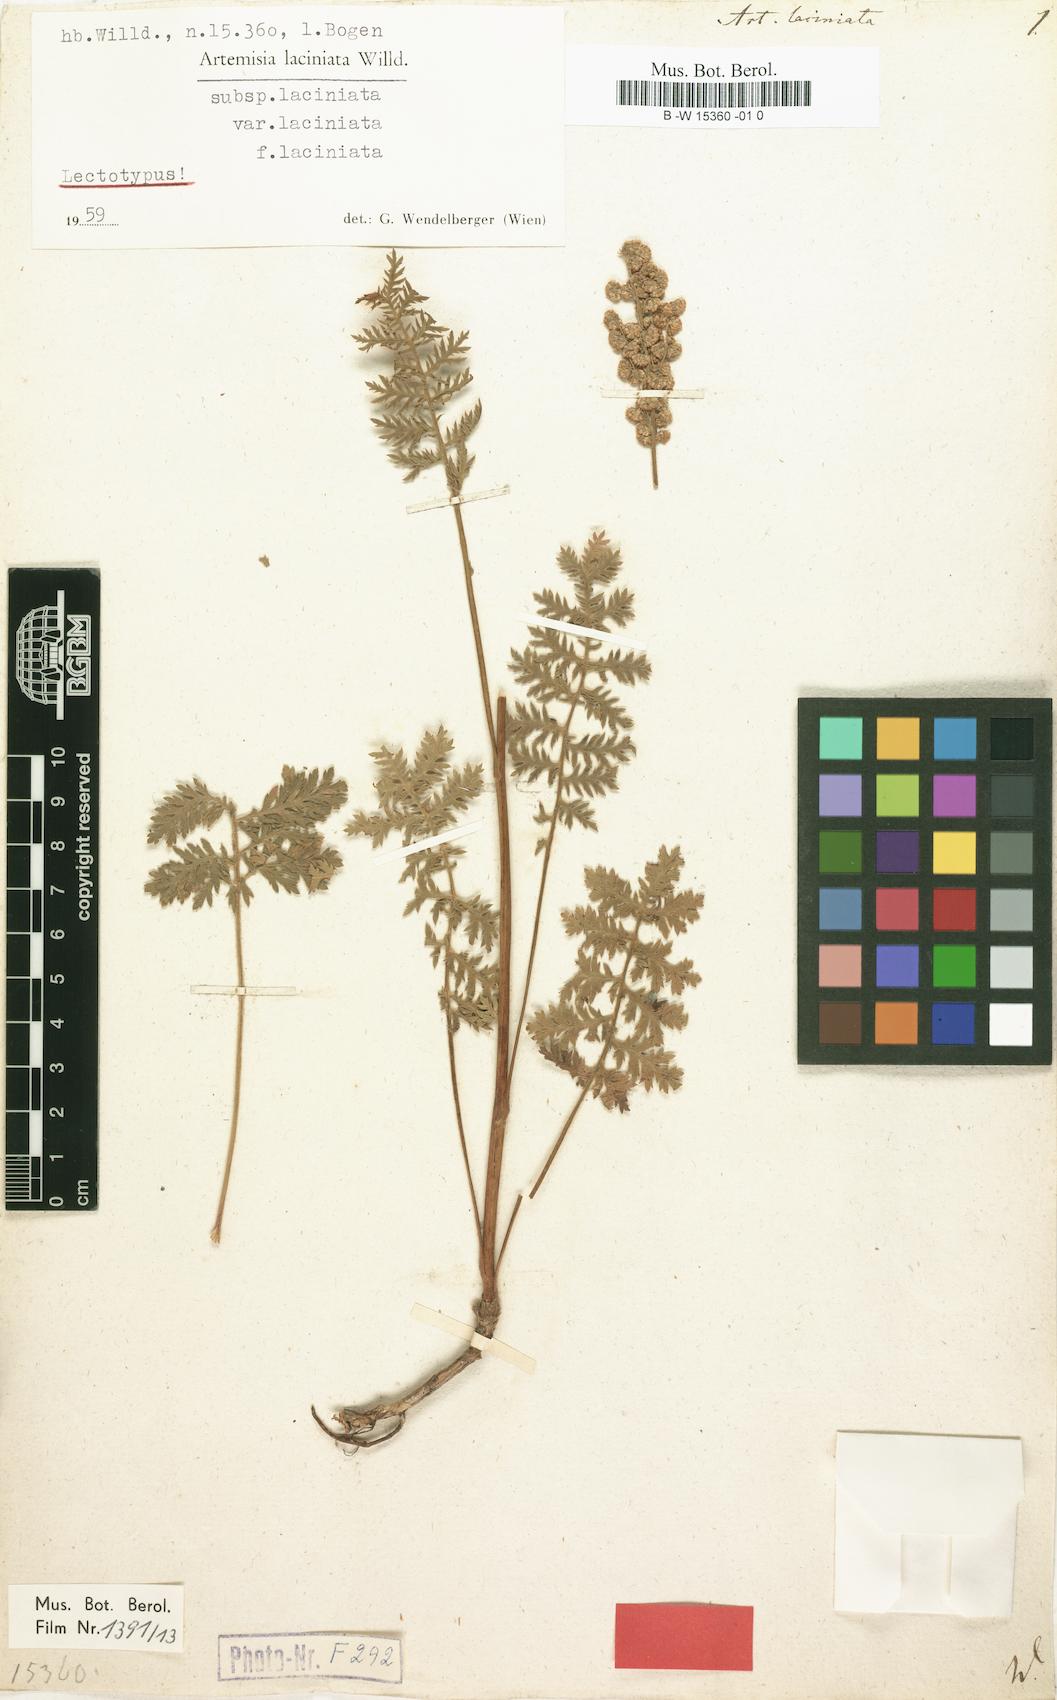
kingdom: Plantae
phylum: Tracheophyta
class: Magnoliopsida
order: Asterales
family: Asteraceae
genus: Artemisia
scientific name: Artemisia laciniata
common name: Siberian wormwood
